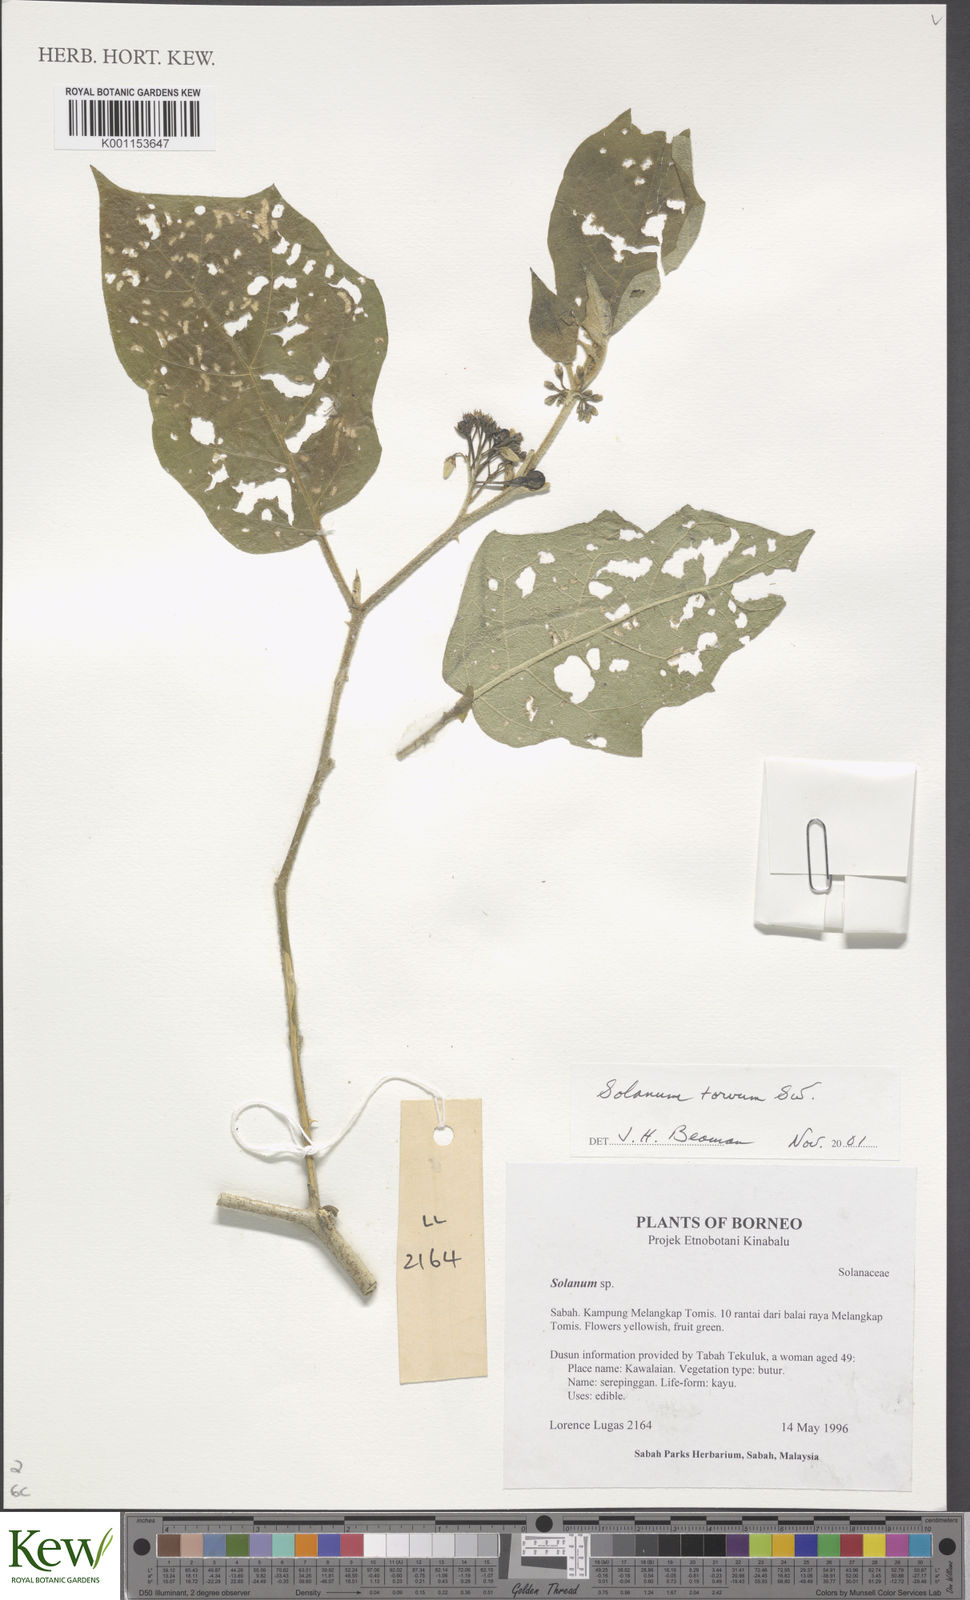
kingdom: Plantae
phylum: Tracheophyta
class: Magnoliopsida
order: Solanales
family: Solanaceae
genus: Solanum
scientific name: Solanum torvum
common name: Turkey berry
